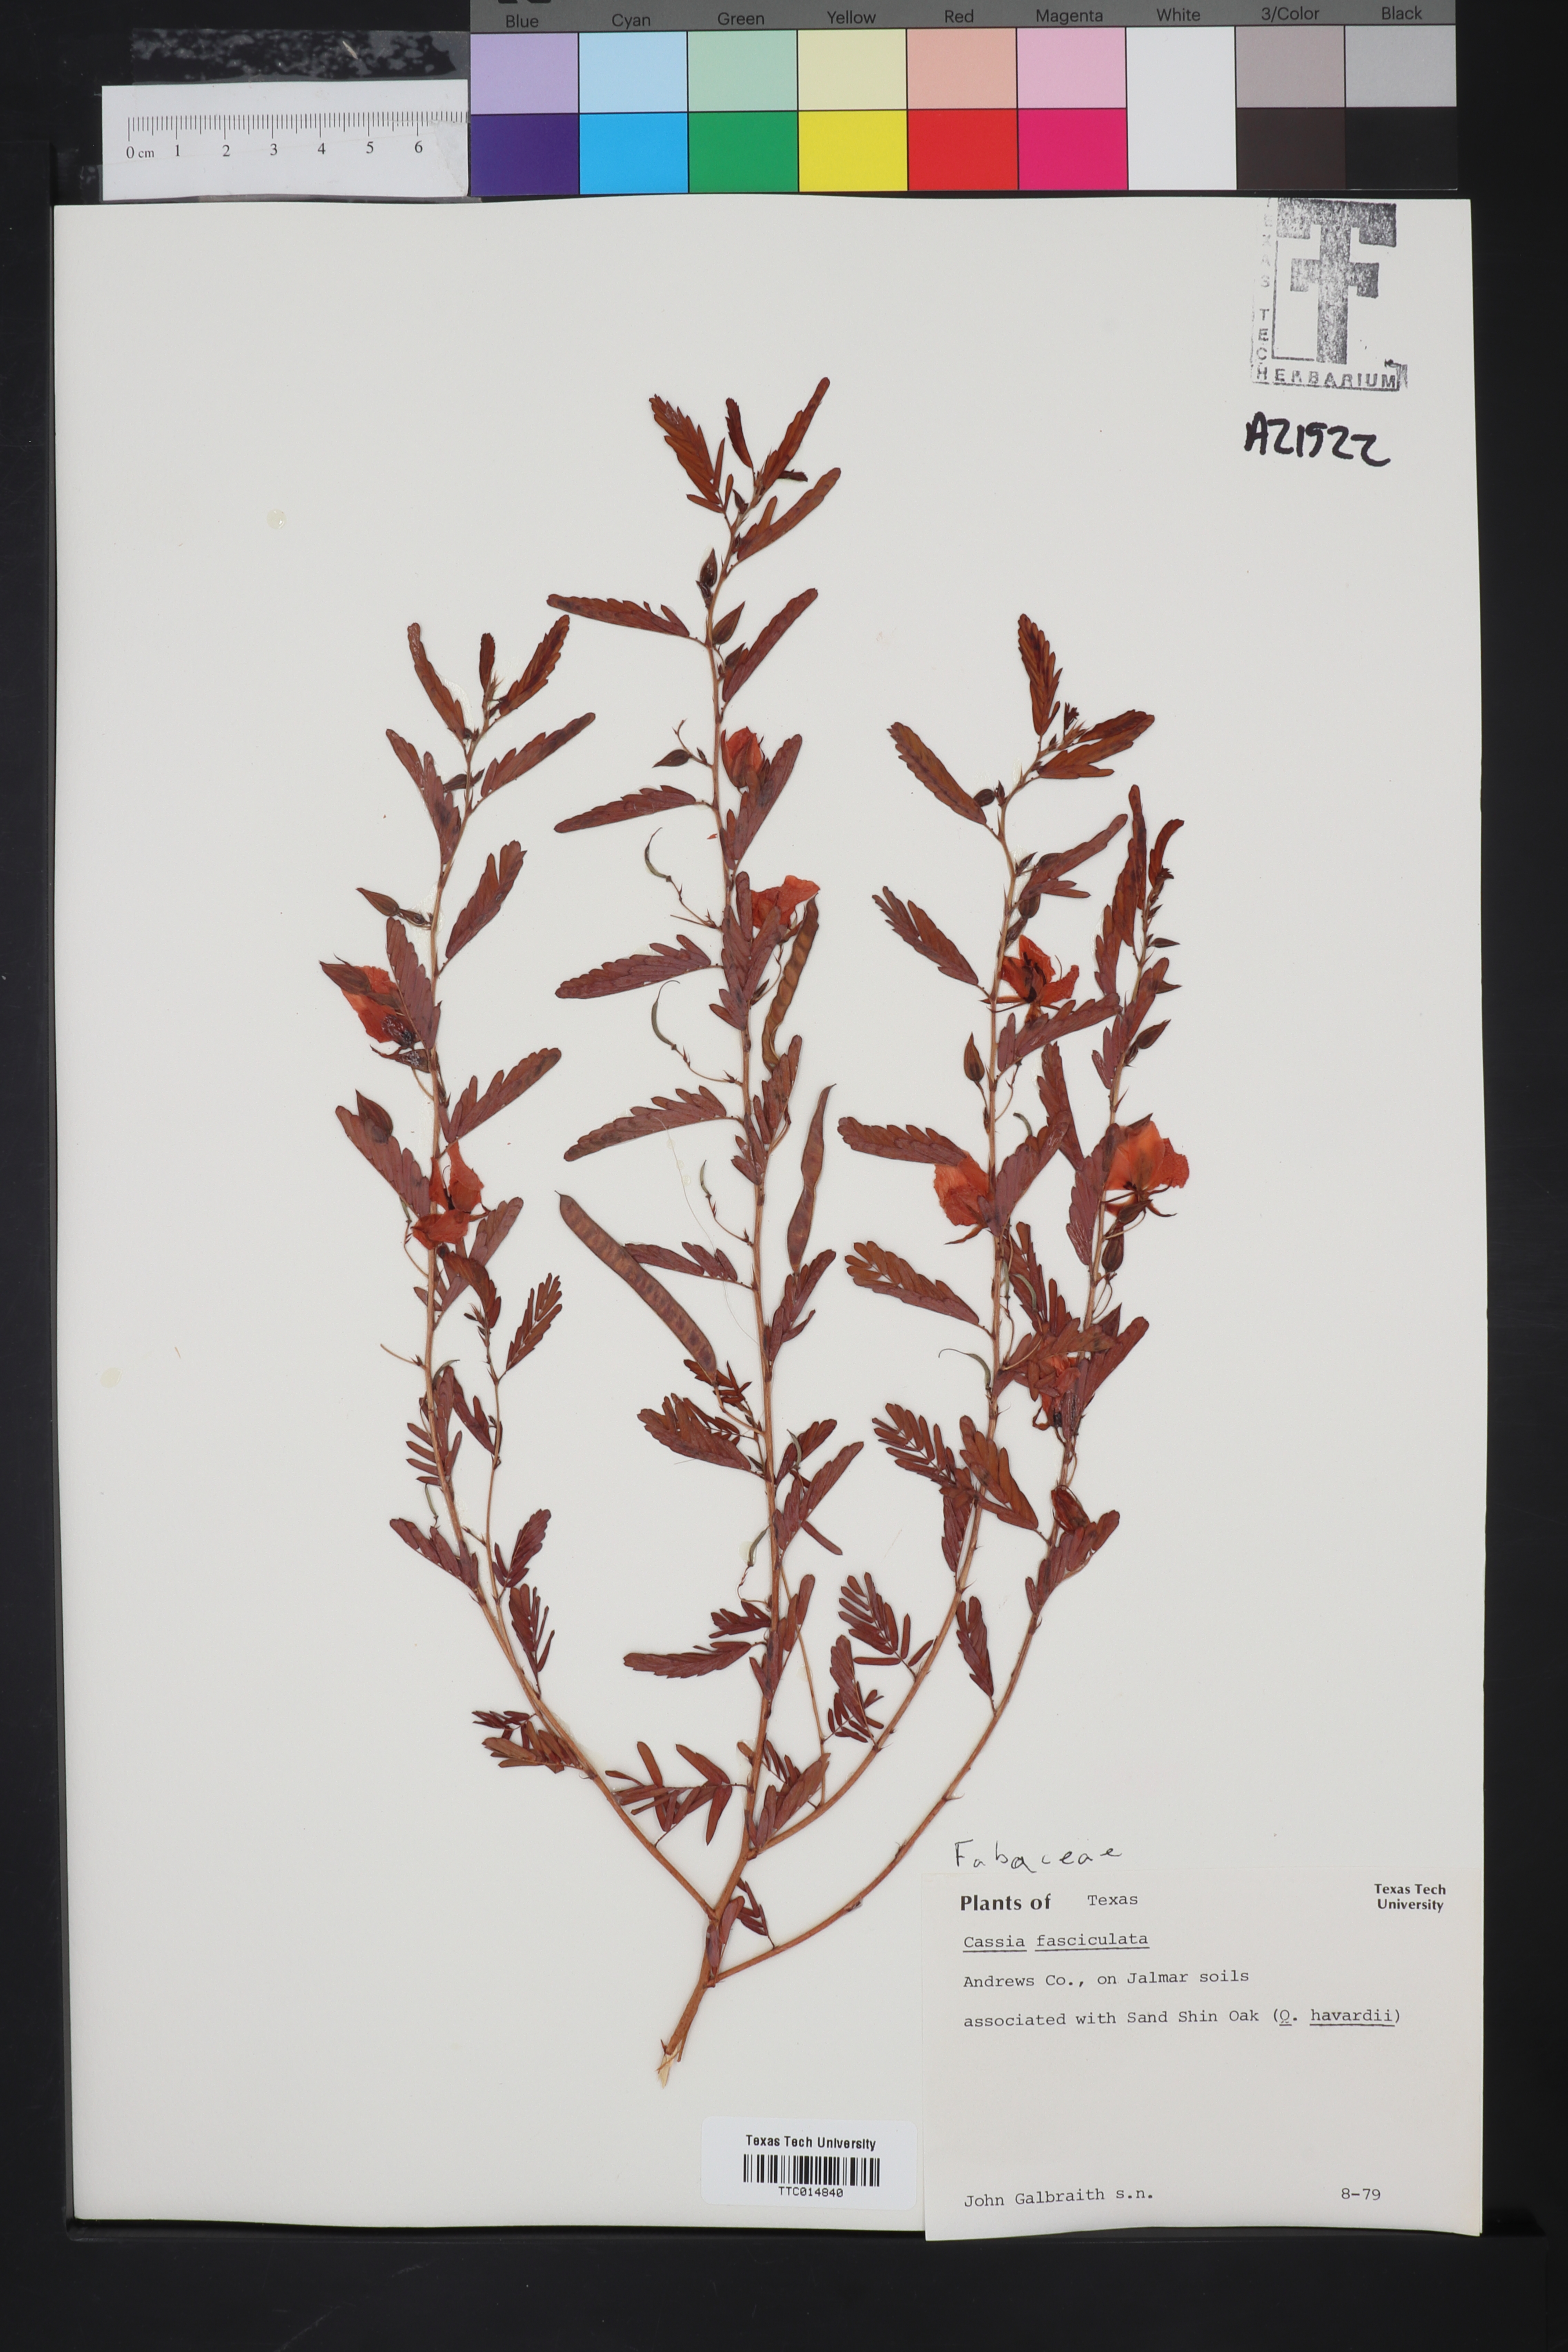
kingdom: Plantae
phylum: Tracheophyta
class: Magnoliopsida
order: Fabales
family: Fabaceae
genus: Chamaecrista
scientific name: Chamaecrista fasciculata
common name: Golden cassia
